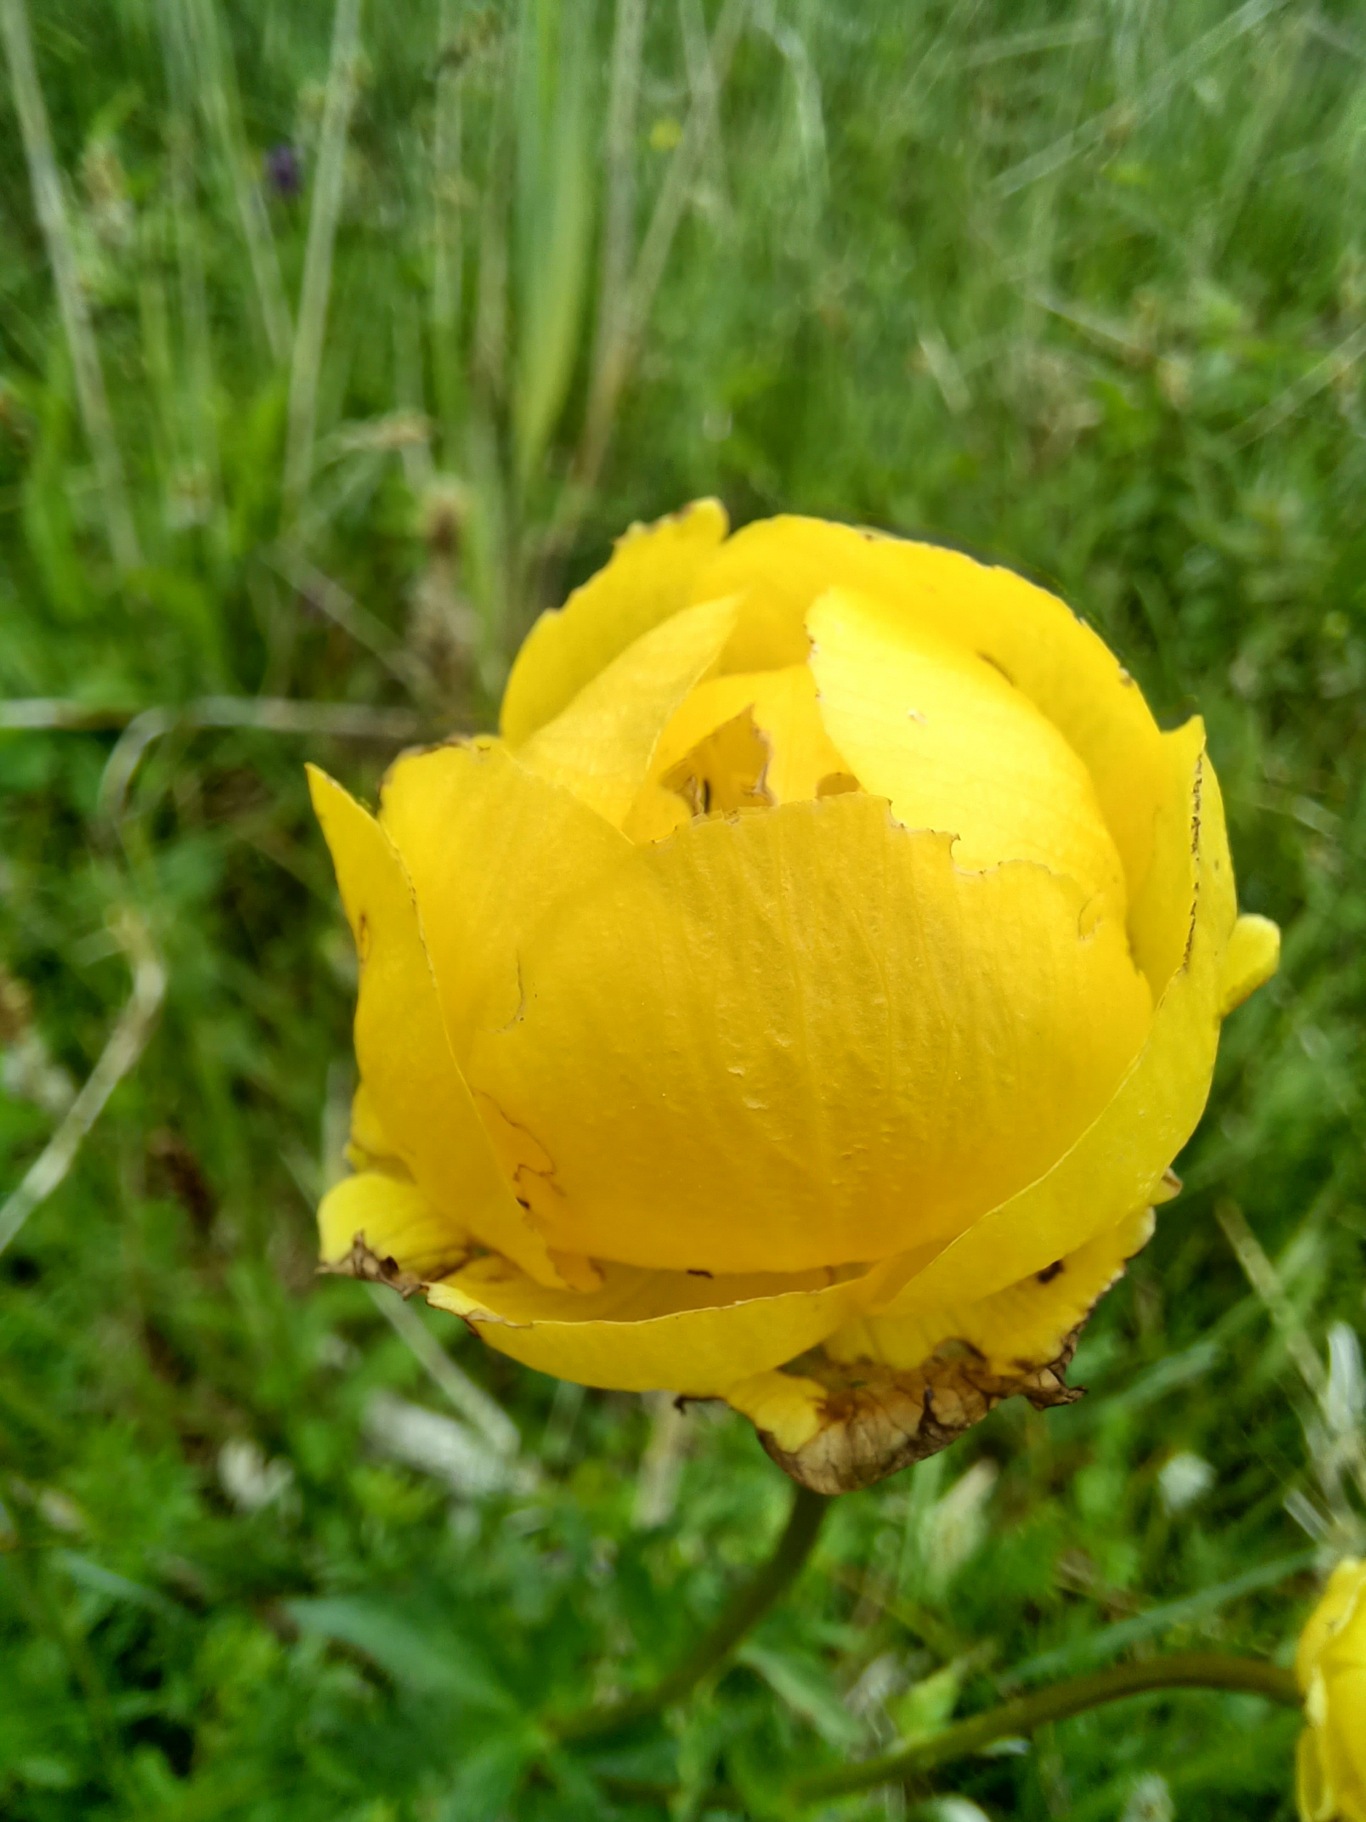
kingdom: Plantae
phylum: Tracheophyta
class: Magnoliopsida
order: Ranunculales
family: Ranunculaceae
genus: Trollius
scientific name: Trollius europaeus
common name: Engblomme
